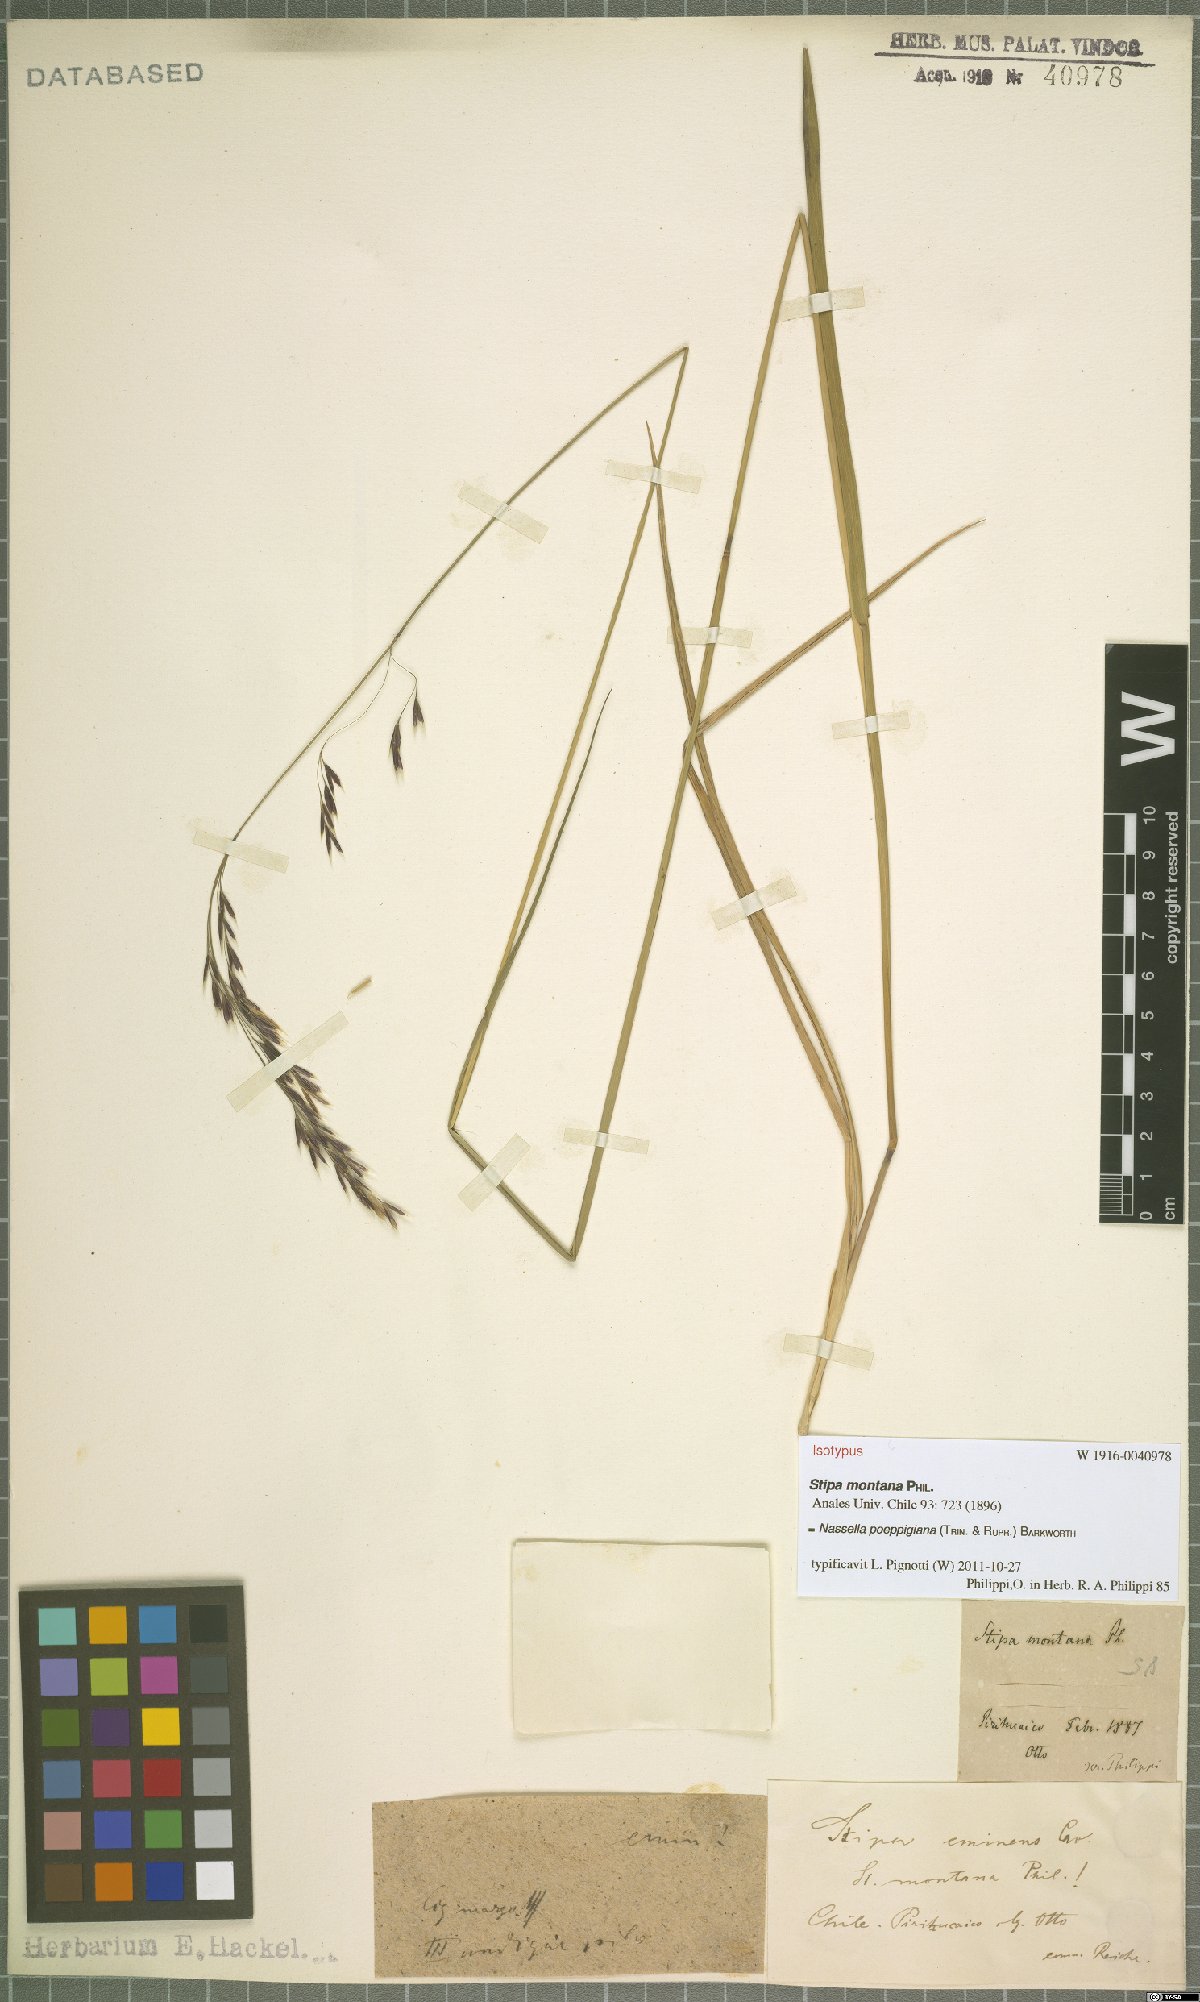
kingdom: Plantae
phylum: Tracheophyta
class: Liliopsida
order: Poales
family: Poaceae
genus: Nassella
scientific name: Nassella poeppigiana
